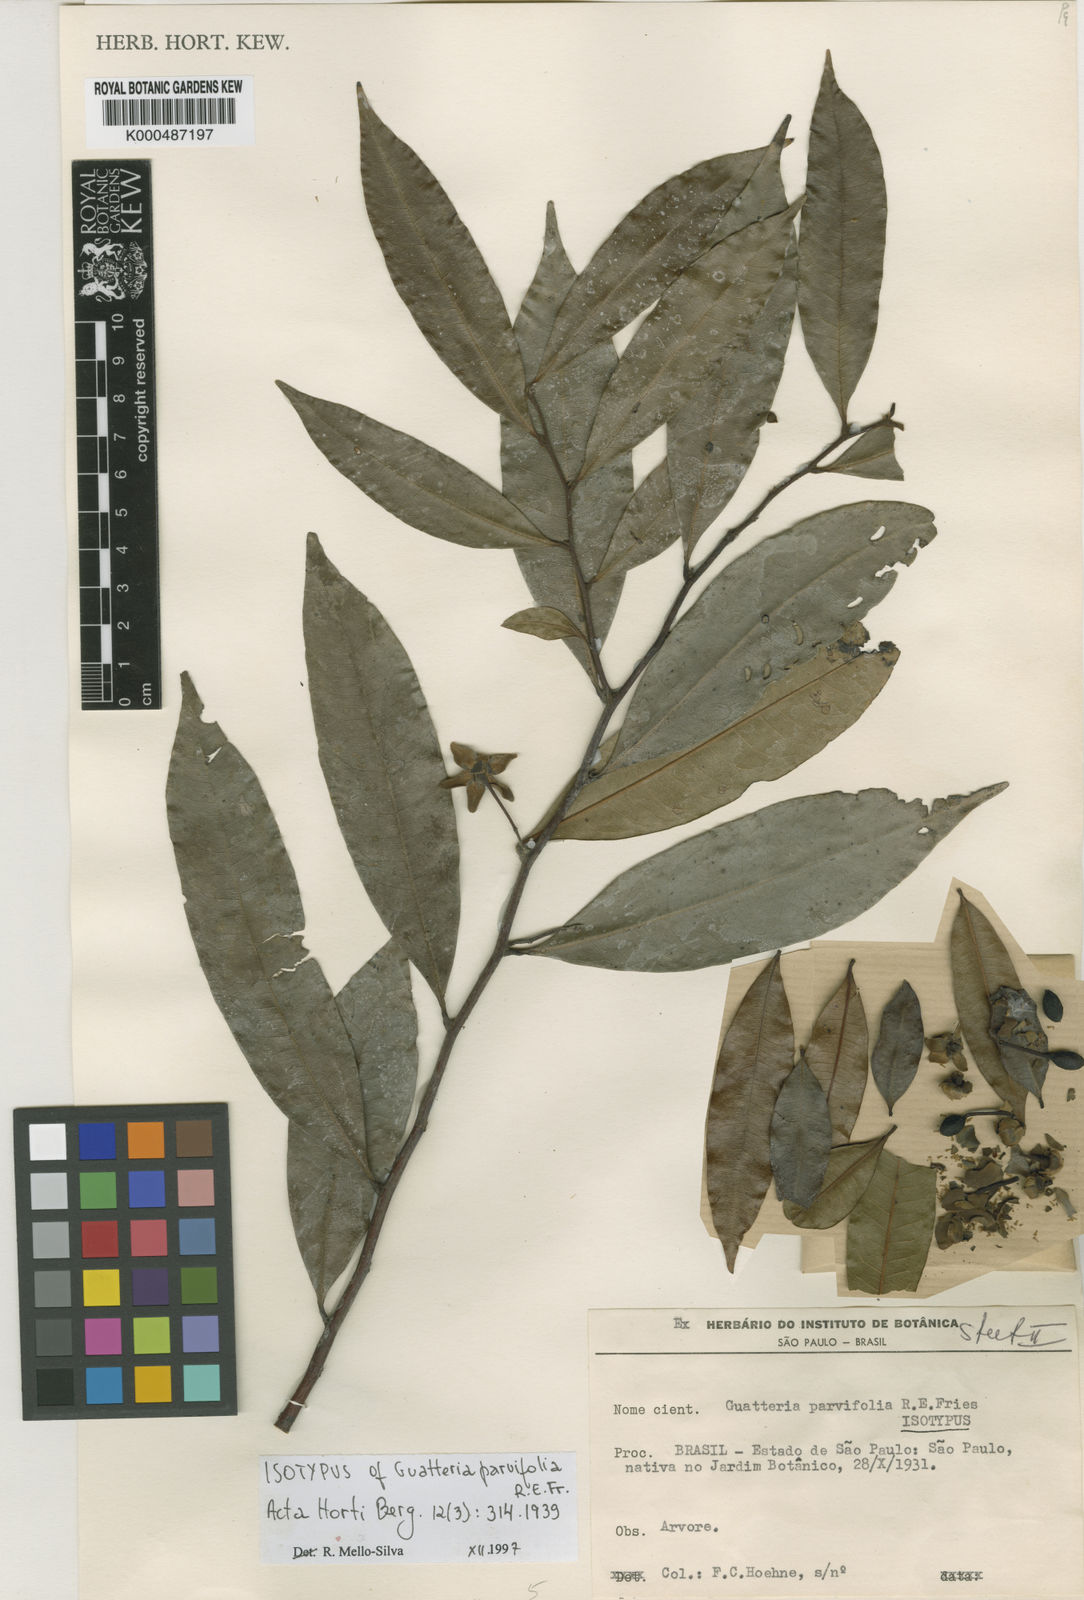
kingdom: Plantae
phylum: Tracheophyta
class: Magnoliopsida
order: Magnoliales
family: Annonaceae
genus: Guatteria
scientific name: Guatteria australis
